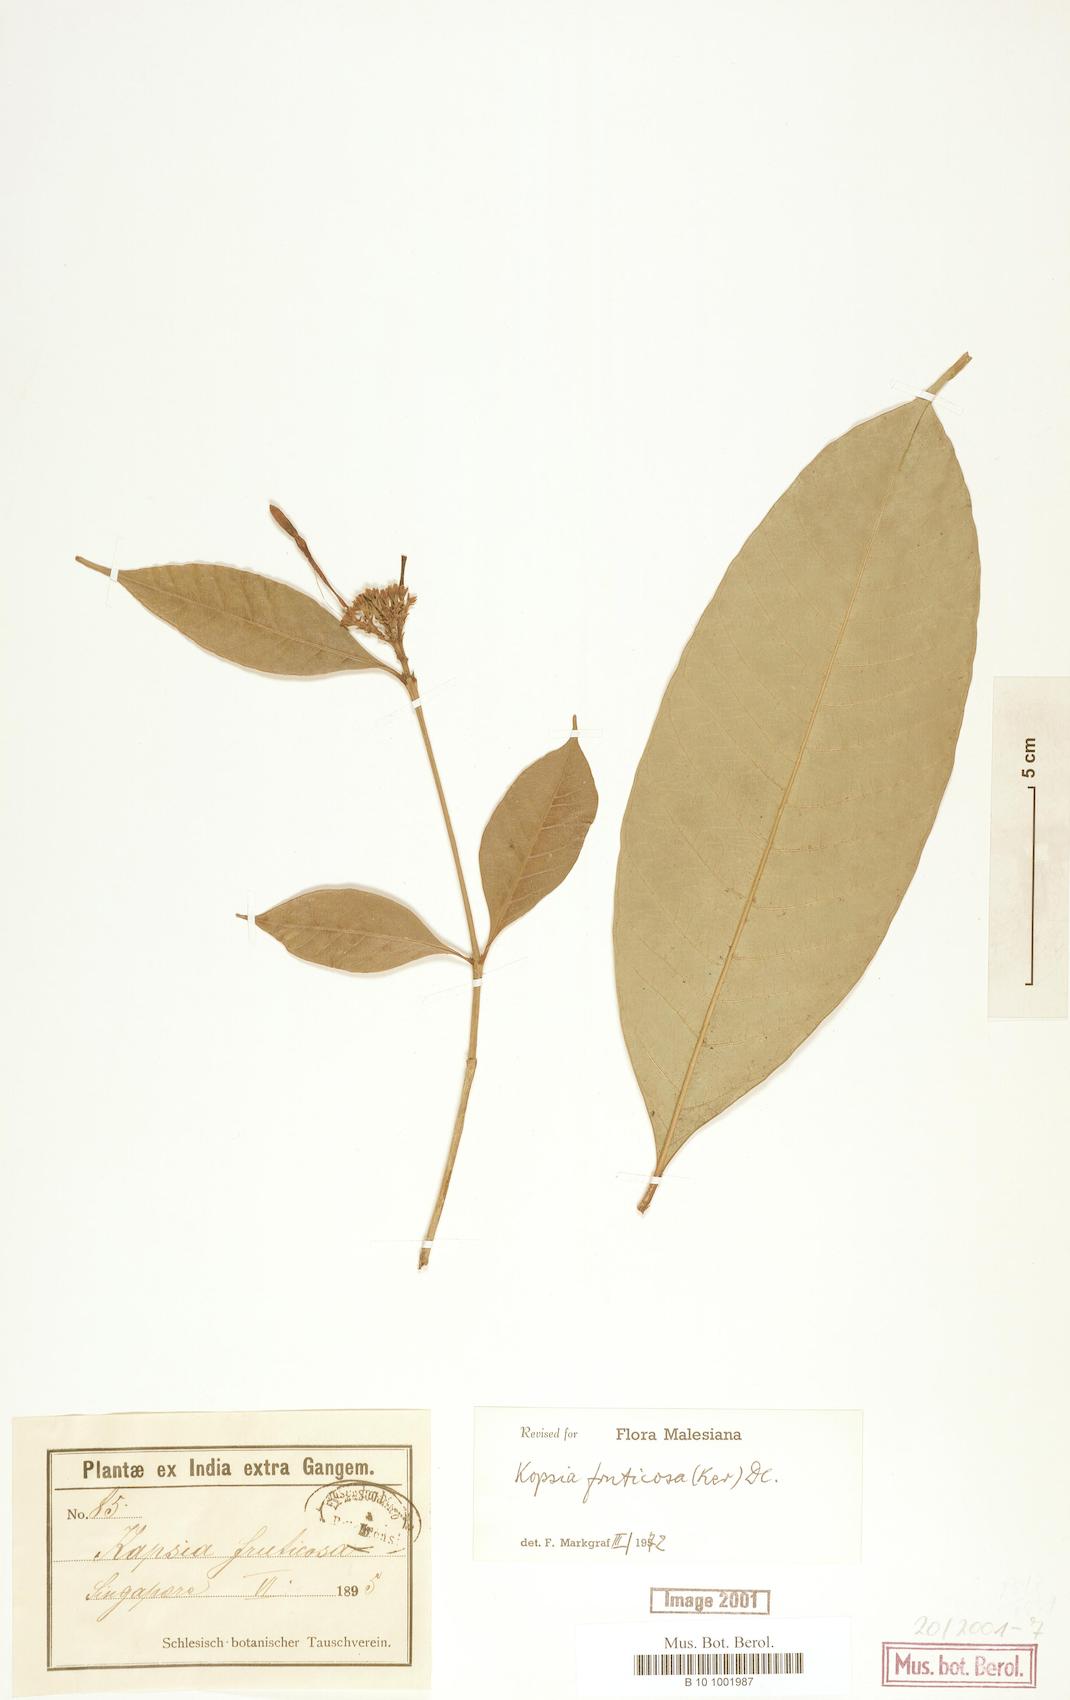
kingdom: Plantae
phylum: Tracheophyta
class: Magnoliopsida
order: Gentianales
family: Apocynaceae
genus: Kopsia
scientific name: Kopsia fruticosa
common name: Shrub-vinca
